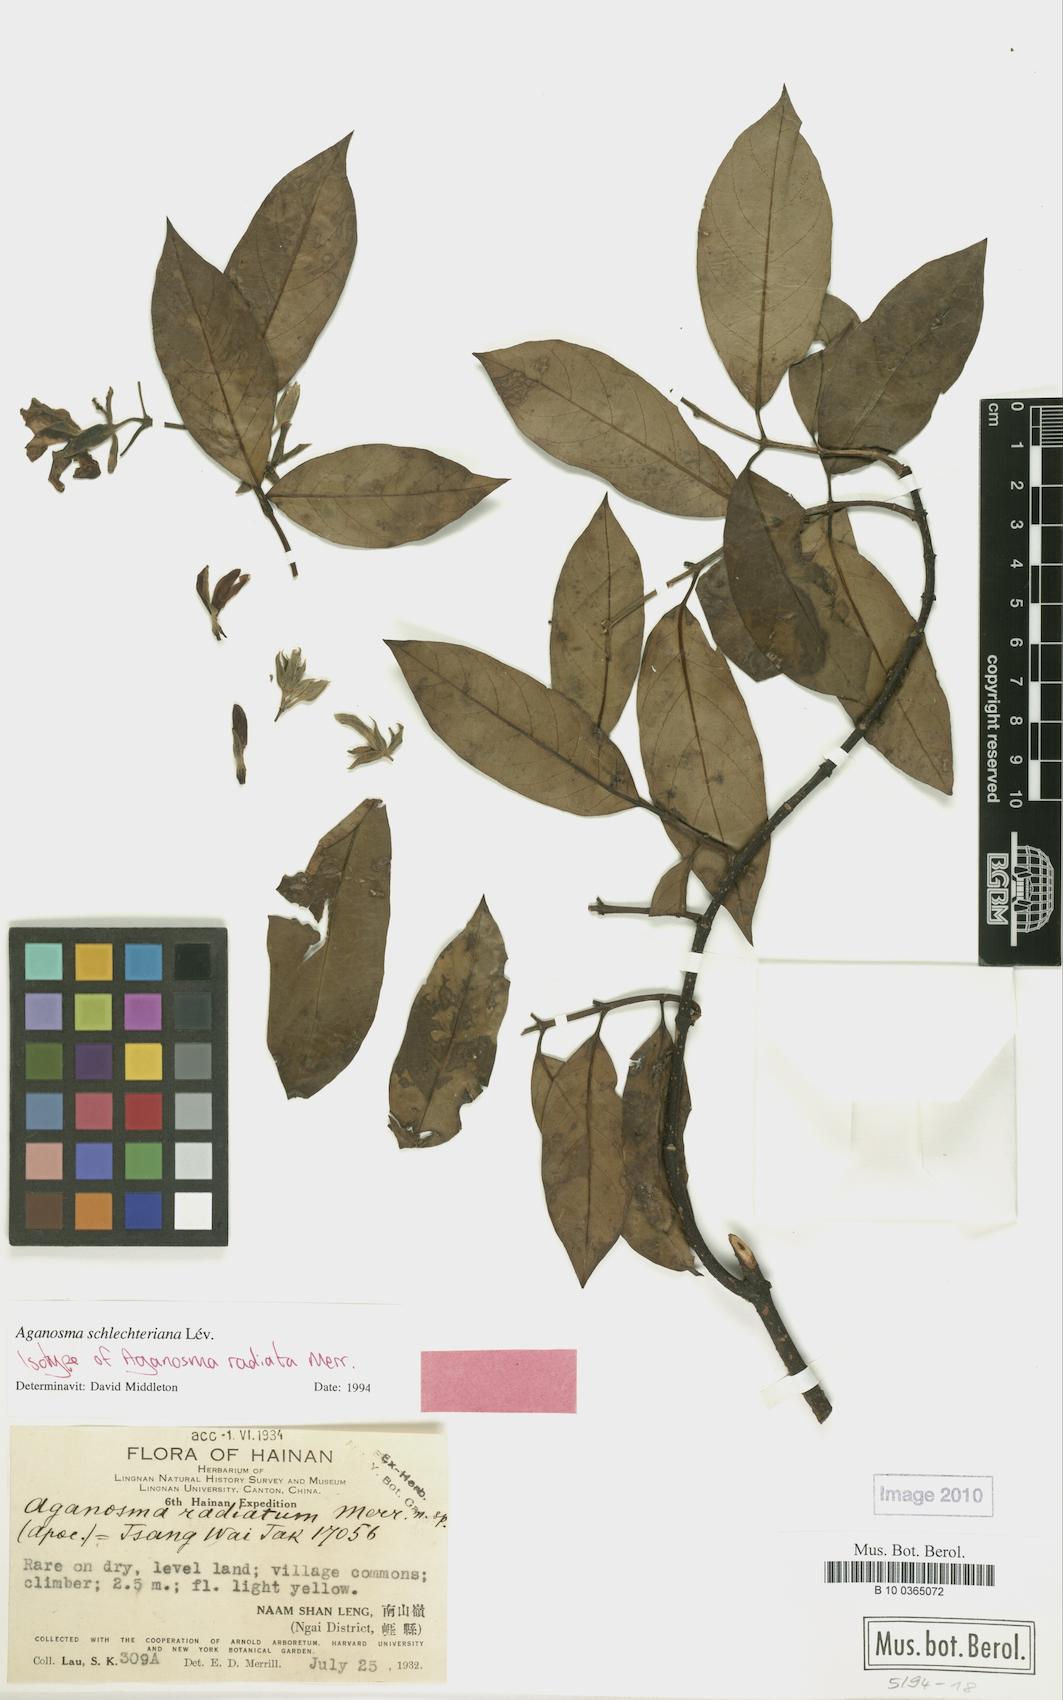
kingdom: Plantae
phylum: Tracheophyta
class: Magnoliopsida
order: Gentianales
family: Apocynaceae
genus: Aganosma
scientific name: Aganosma schlechteriana
